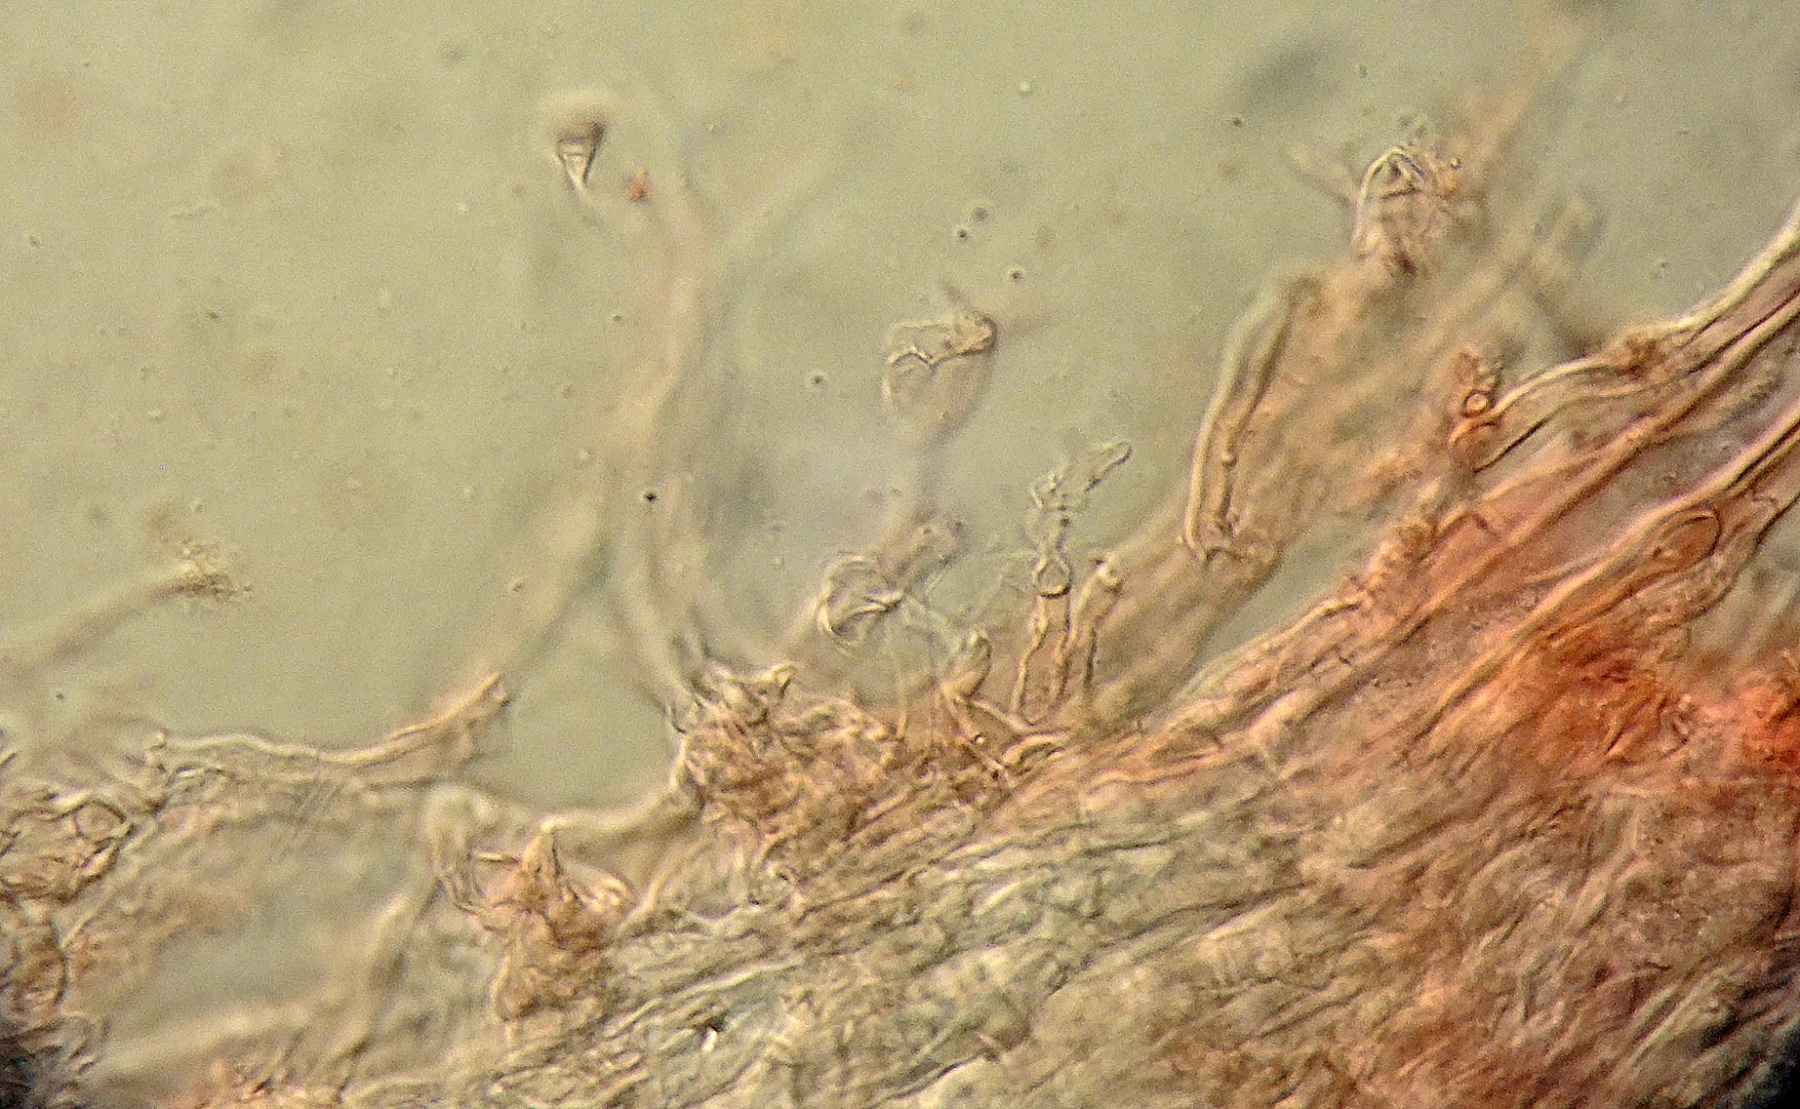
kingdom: Fungi
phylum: Basidiomycota
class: Agaricomycetes
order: Agaricales
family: Marasmiaceae
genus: Calyptella
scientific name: Calyptella gibbosa
